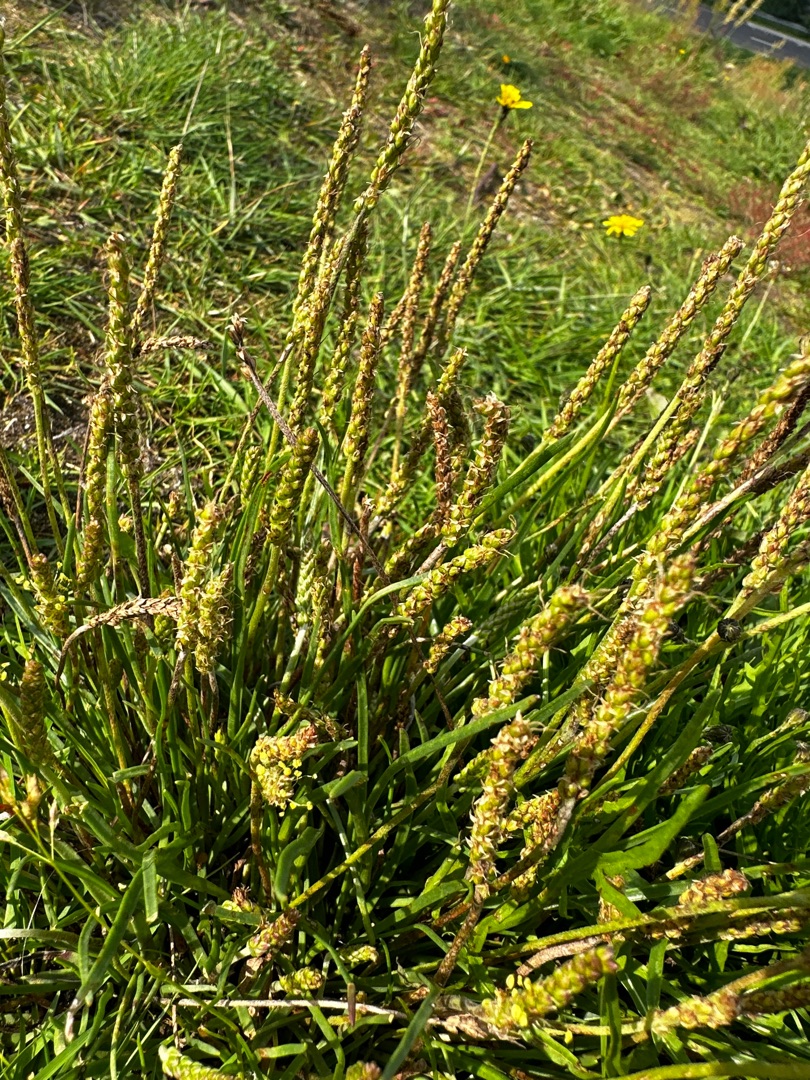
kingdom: Plantae
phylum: Tracheophyta
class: Magnoliopsida
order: Lamiales
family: Plantaginaceae
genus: Plantago
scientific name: Plantago maritima
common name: Strand-vejbred
